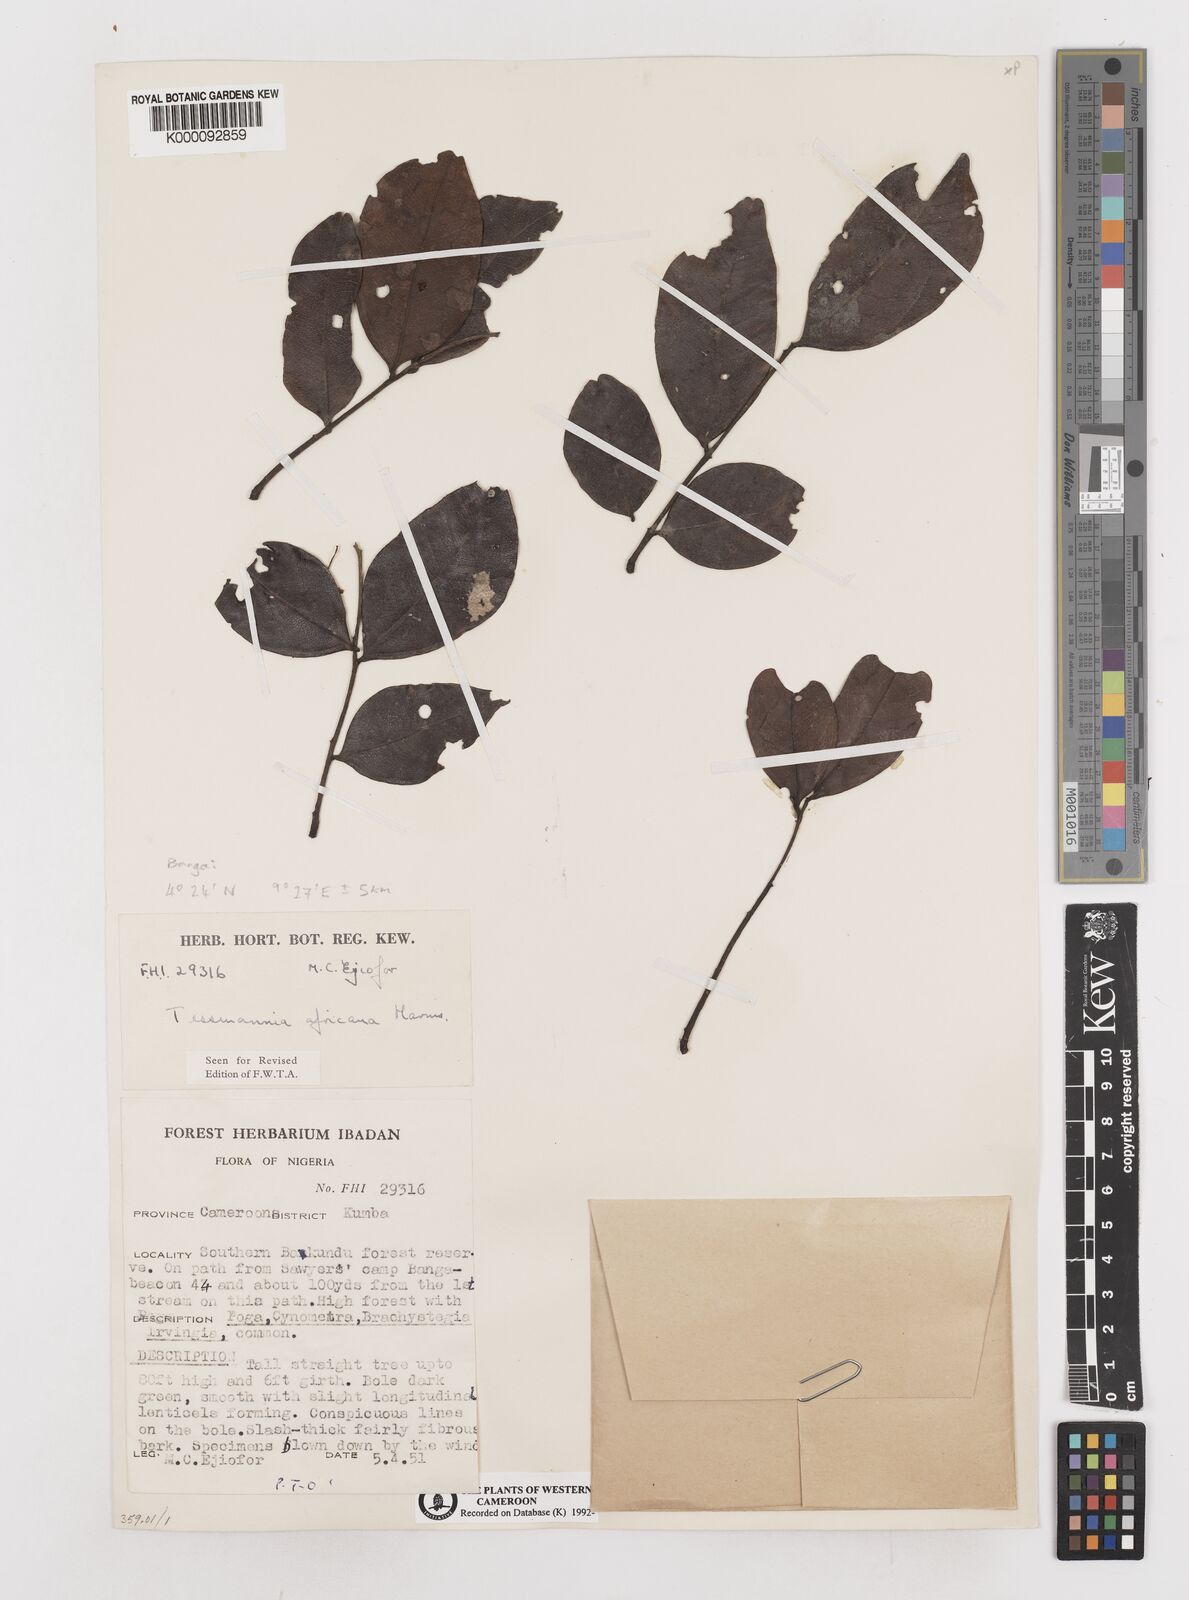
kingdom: Plantae
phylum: Tracheophyta
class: Magnoliopsida
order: Fabales
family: Fabaceae
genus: Tessmannia
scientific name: Tessmannia africana
